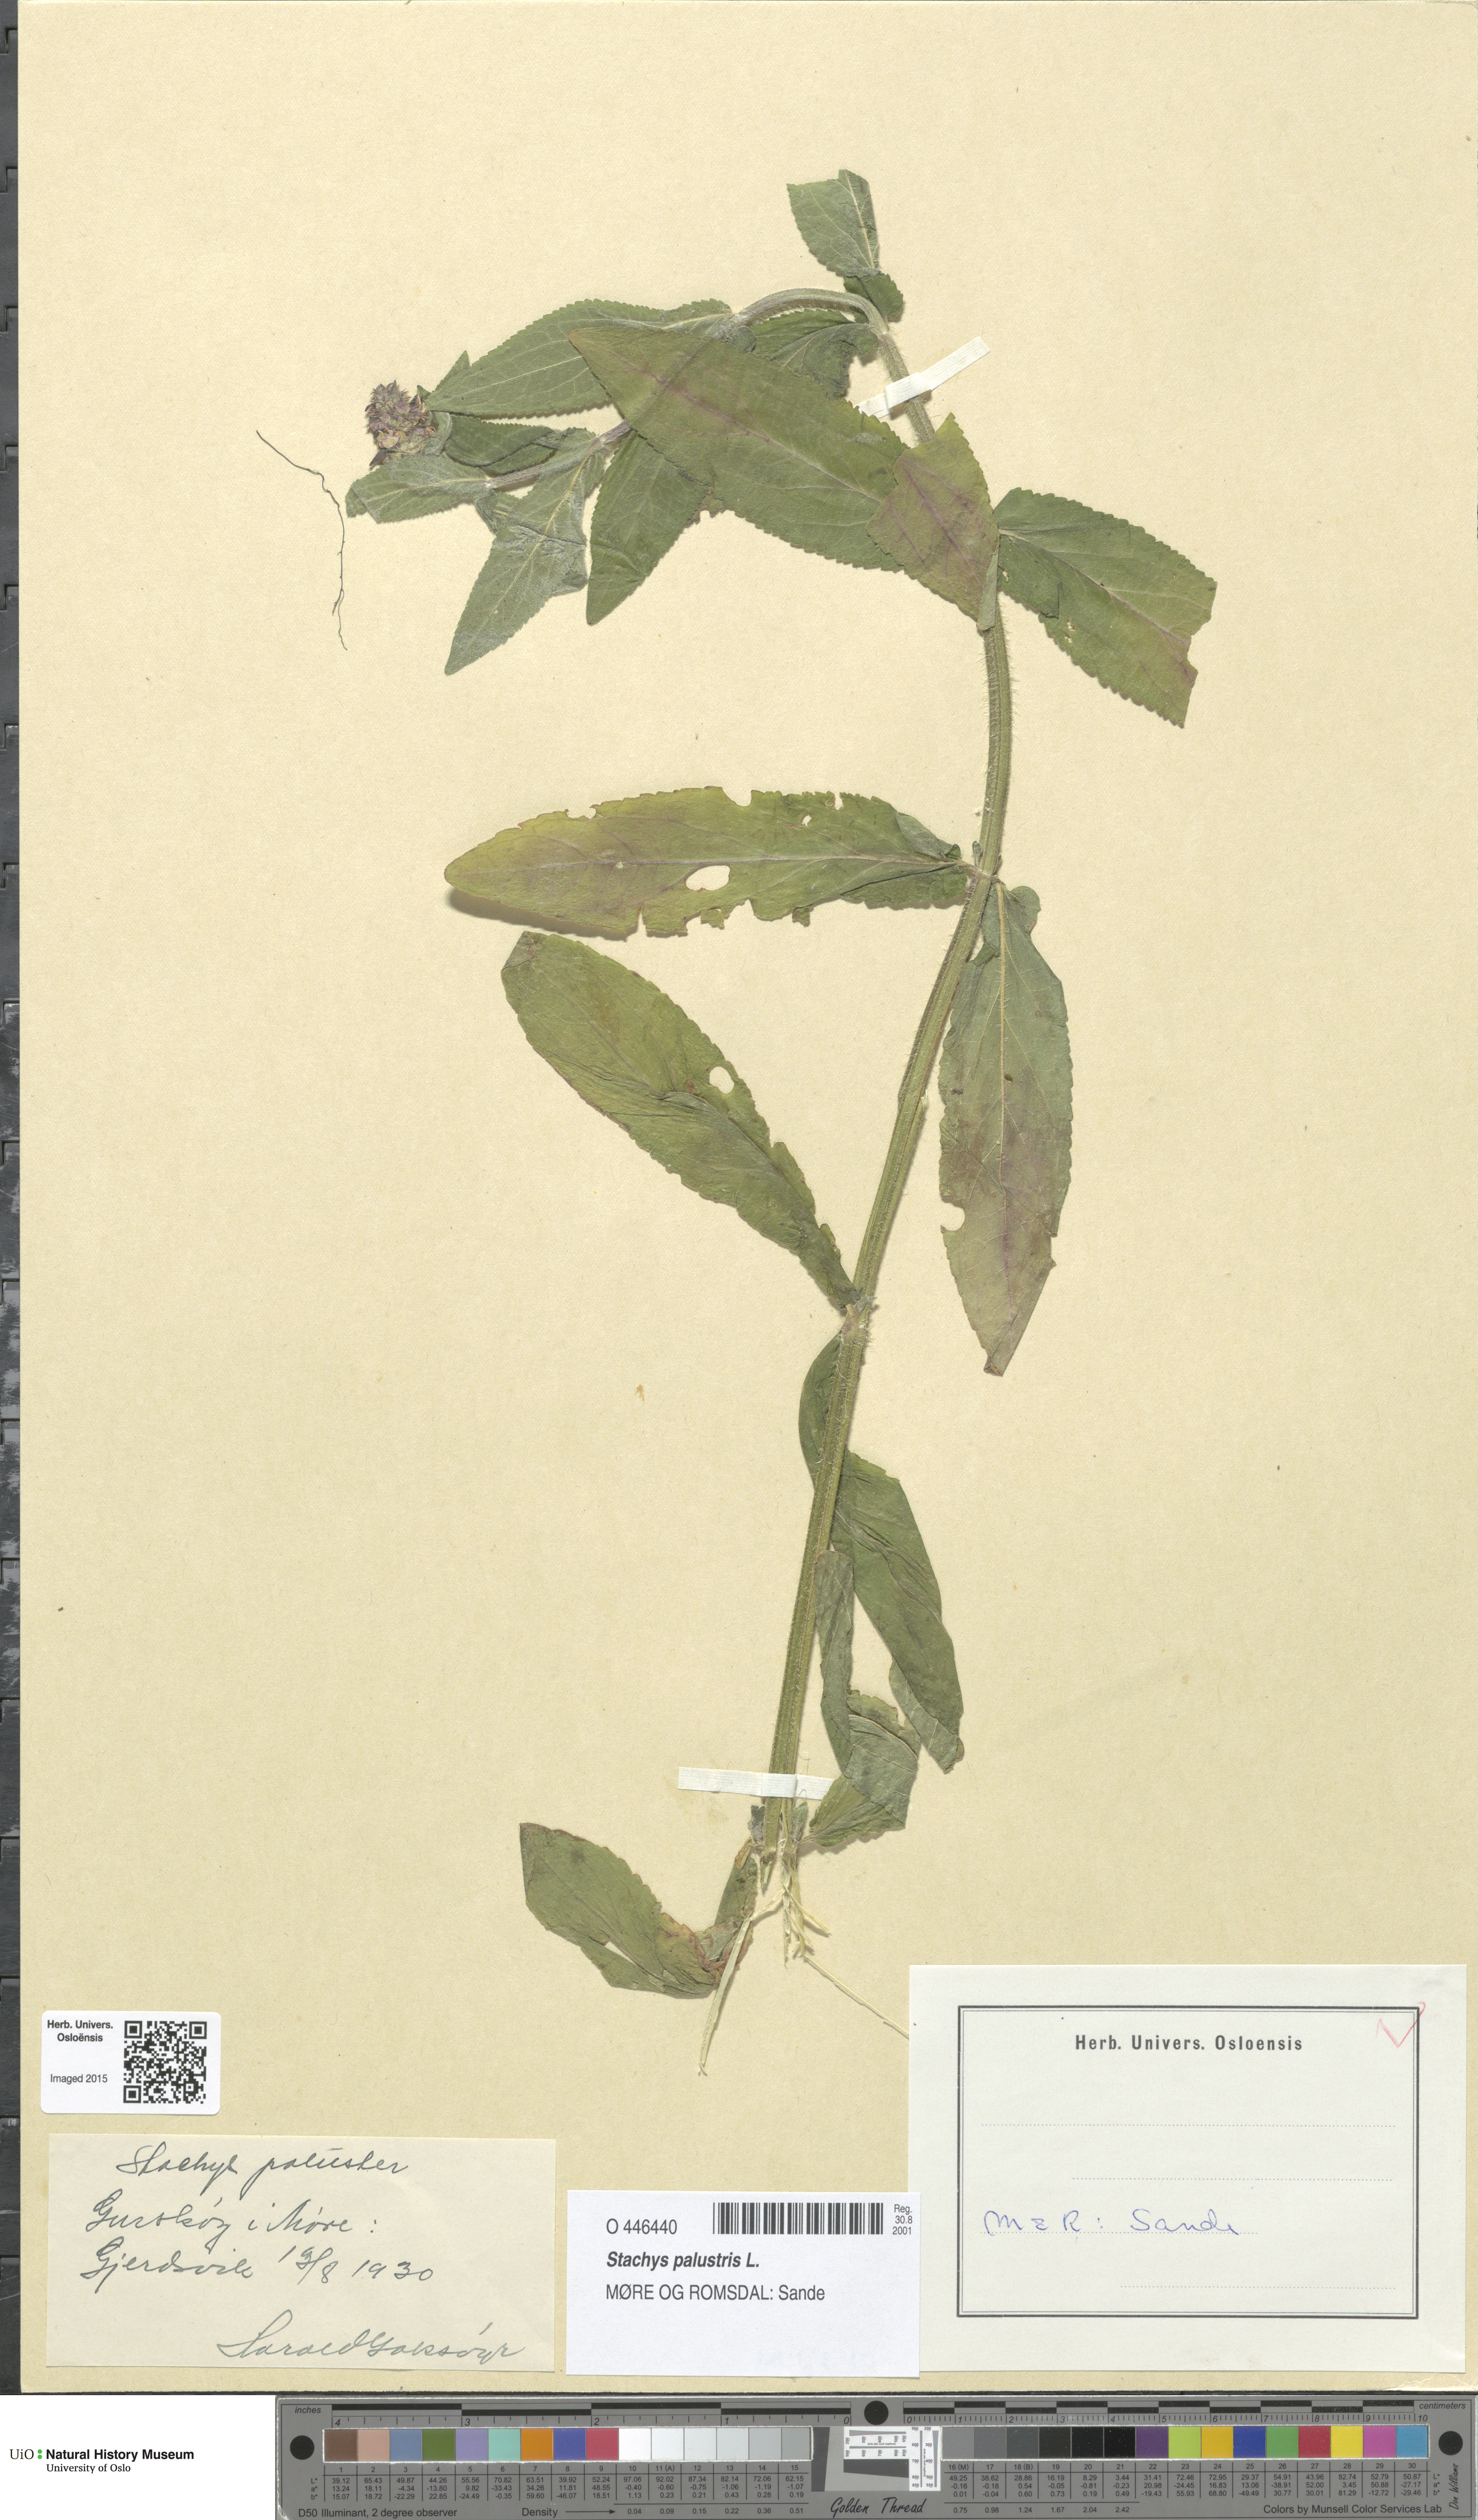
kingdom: Plantae
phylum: Tracheophyta
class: Magnoliopsida
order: Lamiales
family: Lamiaceae
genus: Stachys
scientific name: Stachys palustris
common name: Marsh woundwort
